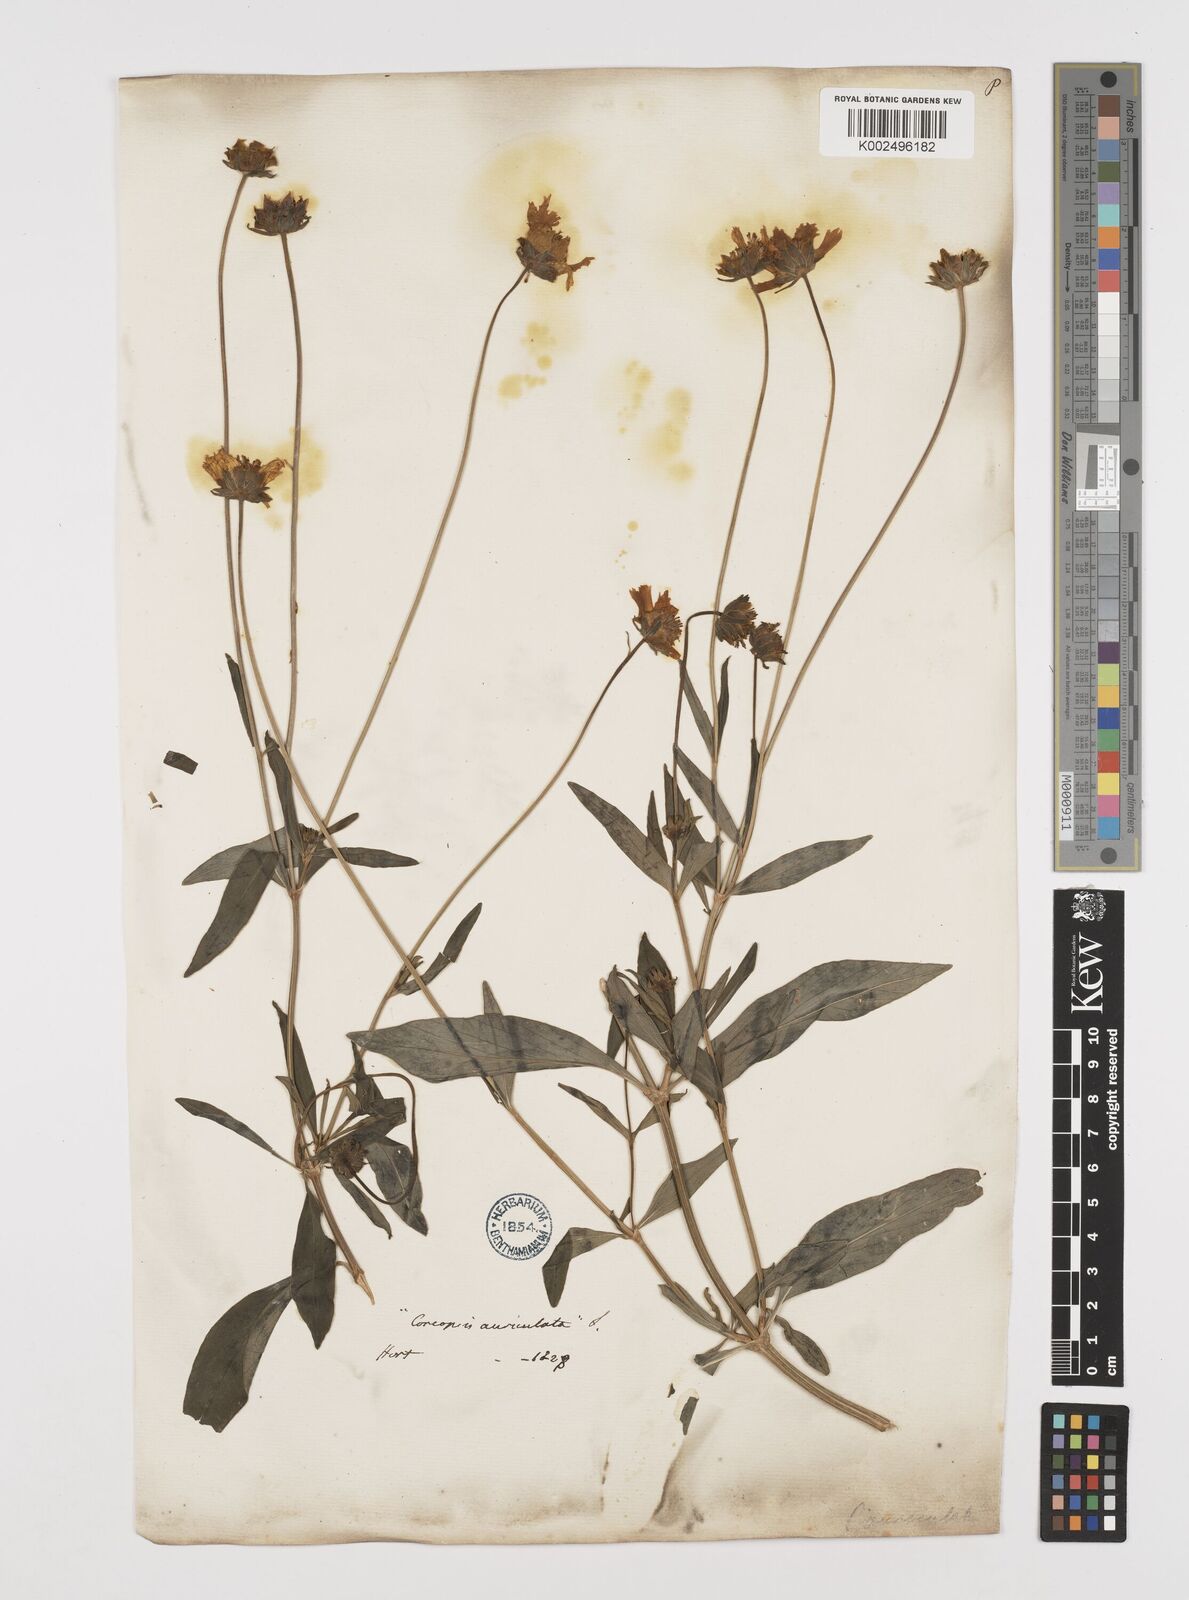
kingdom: Plantae
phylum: Tracheophyta
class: Magnoliopsida
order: Asterales
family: Asteraceae
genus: Coreopsis
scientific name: Coreopsis pubescens
